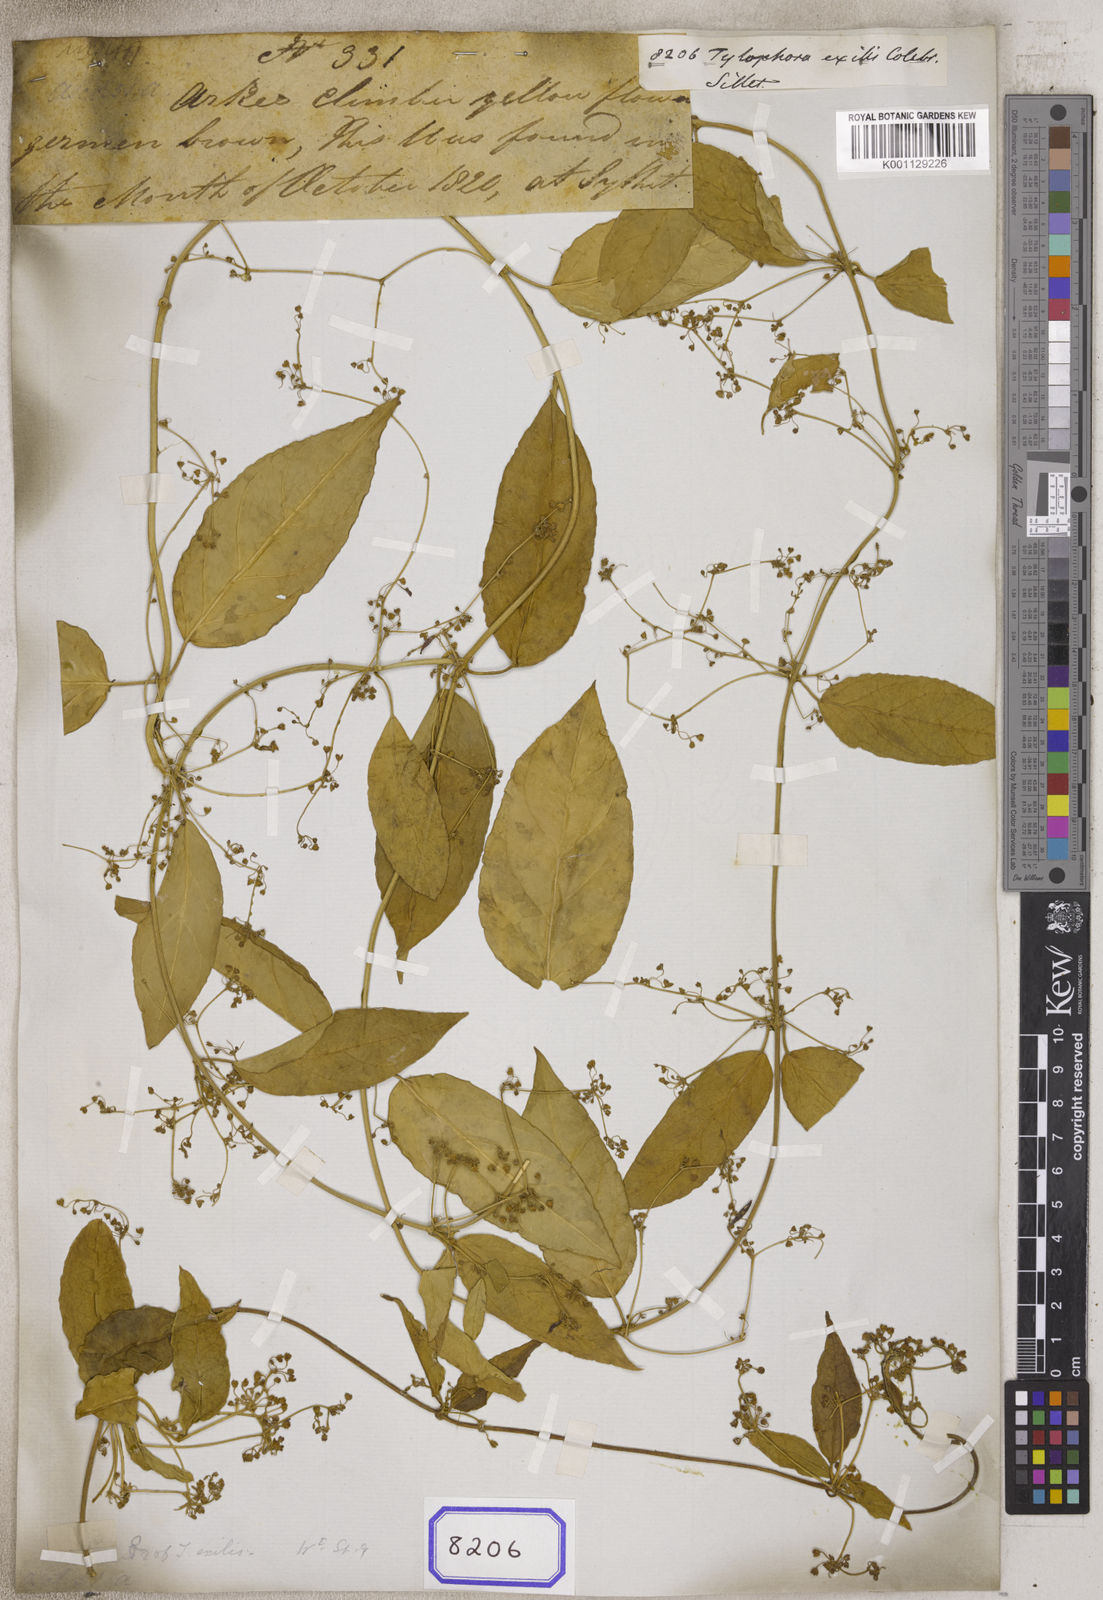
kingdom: Plantae
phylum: Tracheophyta
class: Magnoliopsida
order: Gentianales
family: Apocynaceae
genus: Vincetoxicum
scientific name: Vincetoxicum exile
